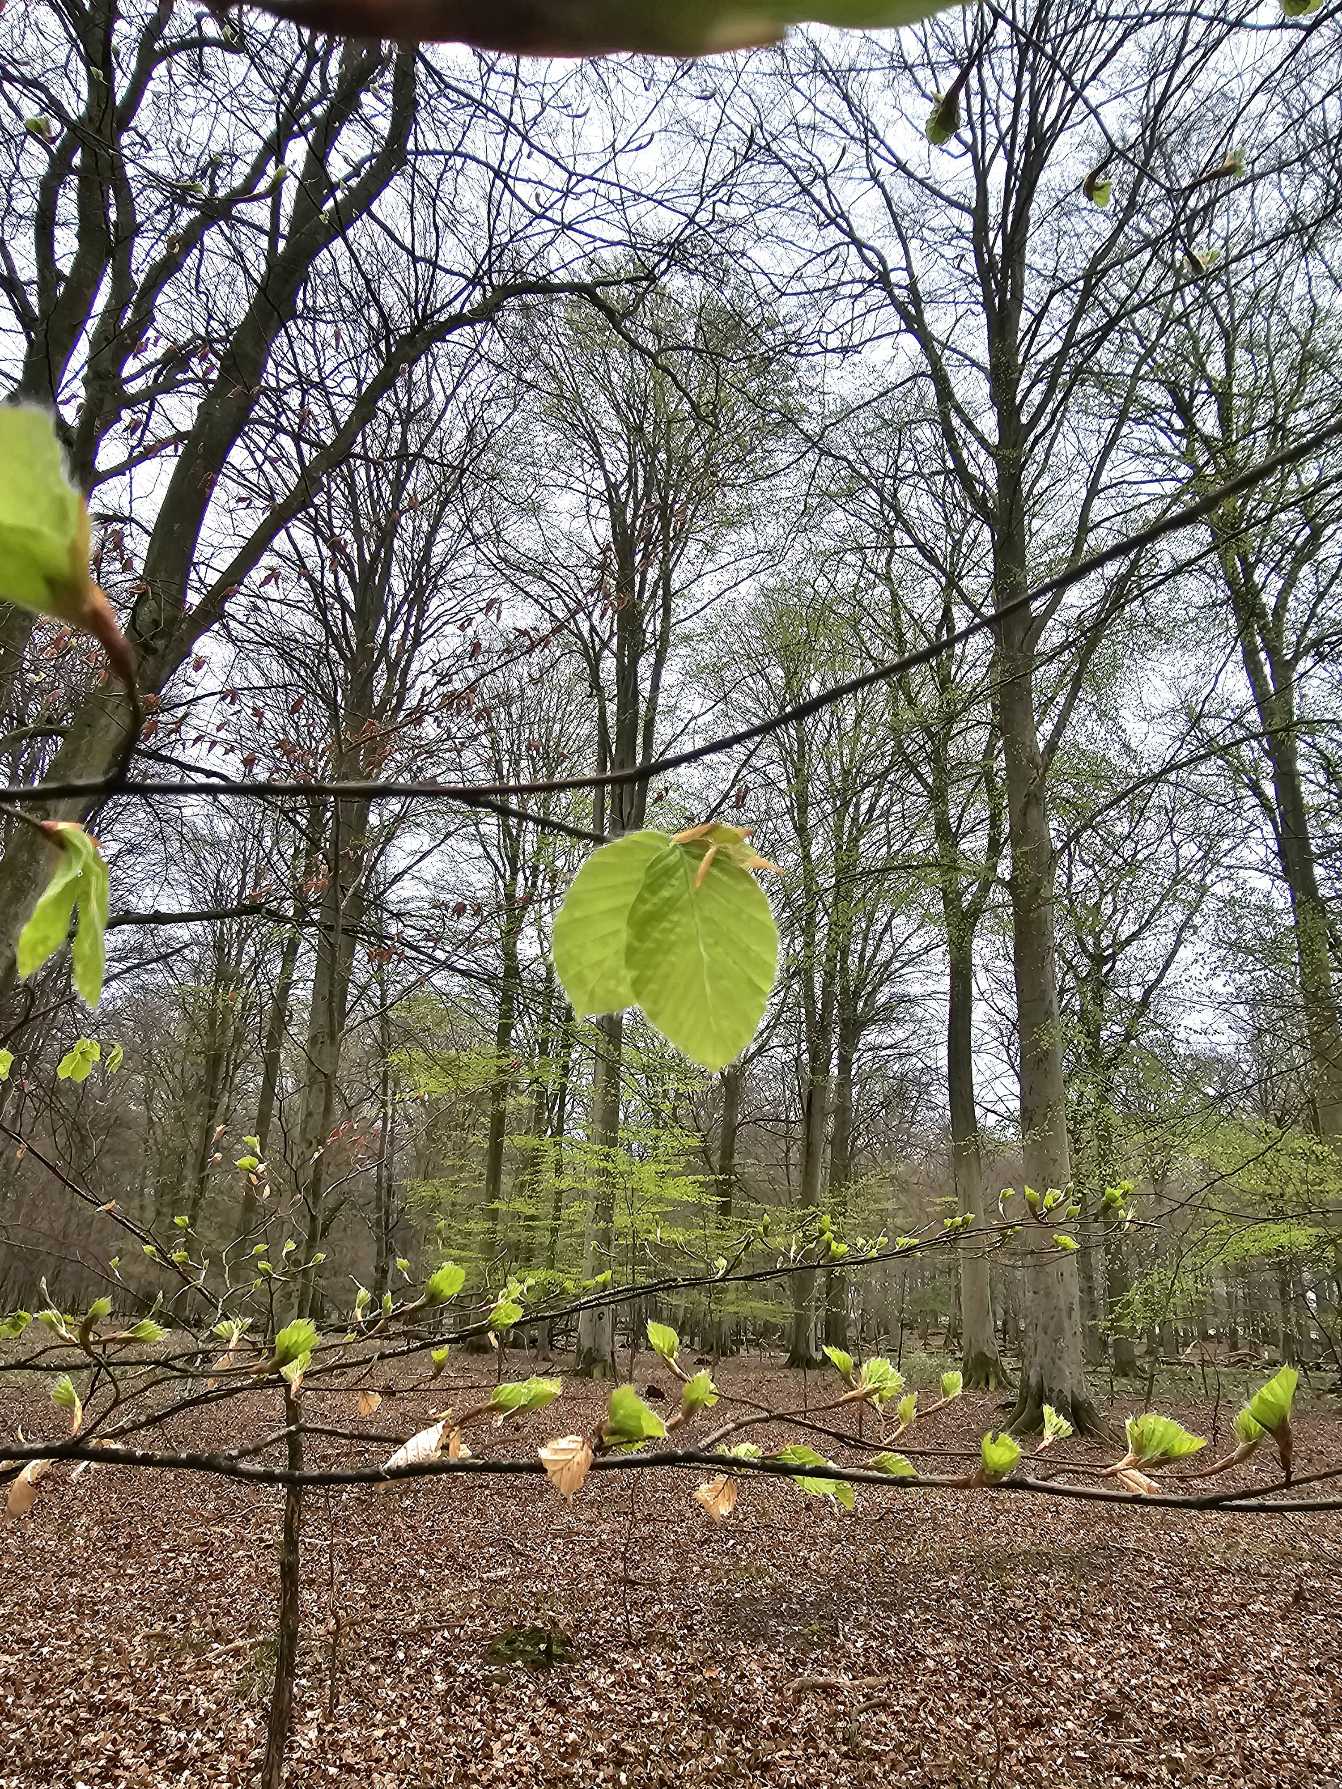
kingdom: Plantae
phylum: Tracheophyta
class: Magnoliopsida
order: Fagales
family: Fagaceae
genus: Fagus
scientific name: Fagus sylvatica
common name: Bøg
